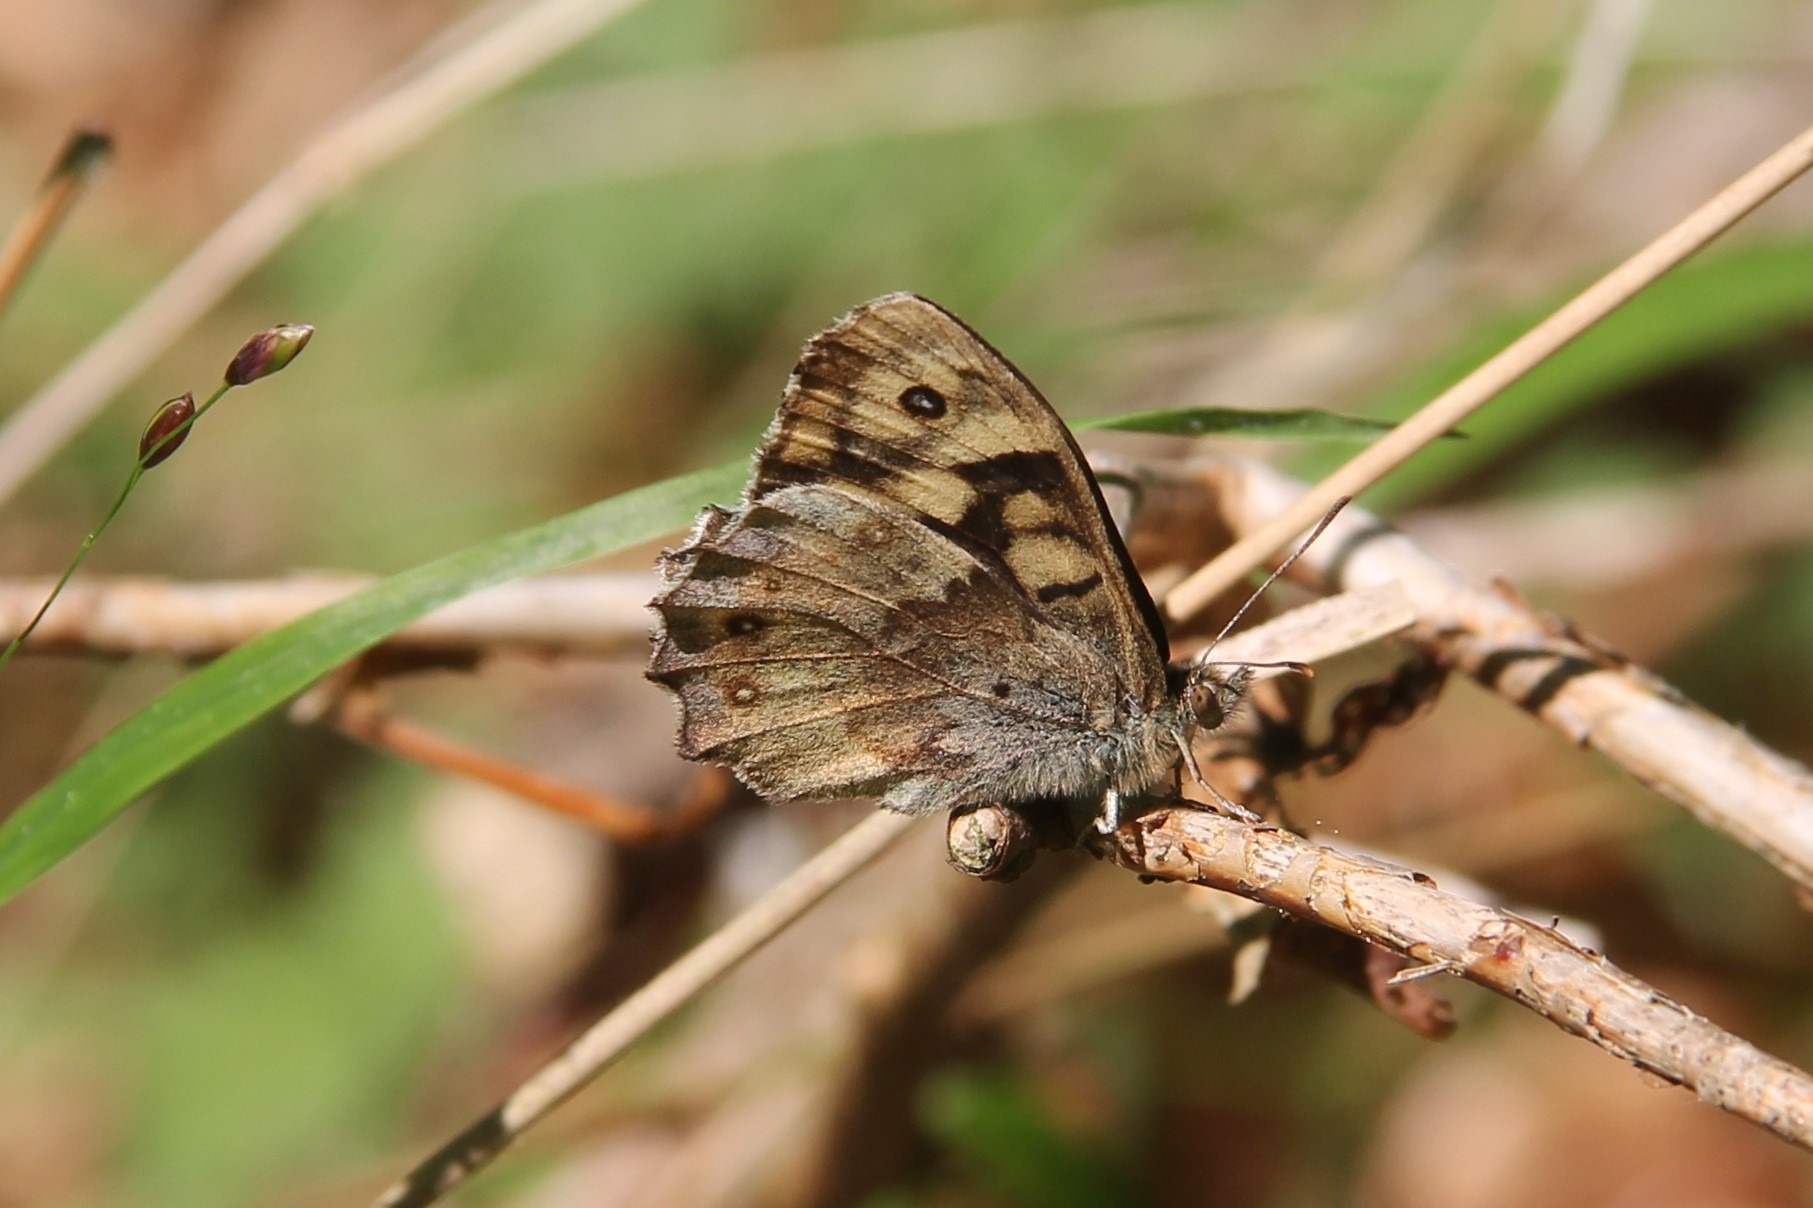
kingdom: Animalia
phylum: Arthropoda
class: Insecta
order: Lepidoptera
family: Nymphalidae
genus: Pararge
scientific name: Pararge aegeria
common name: Skovrandøje
